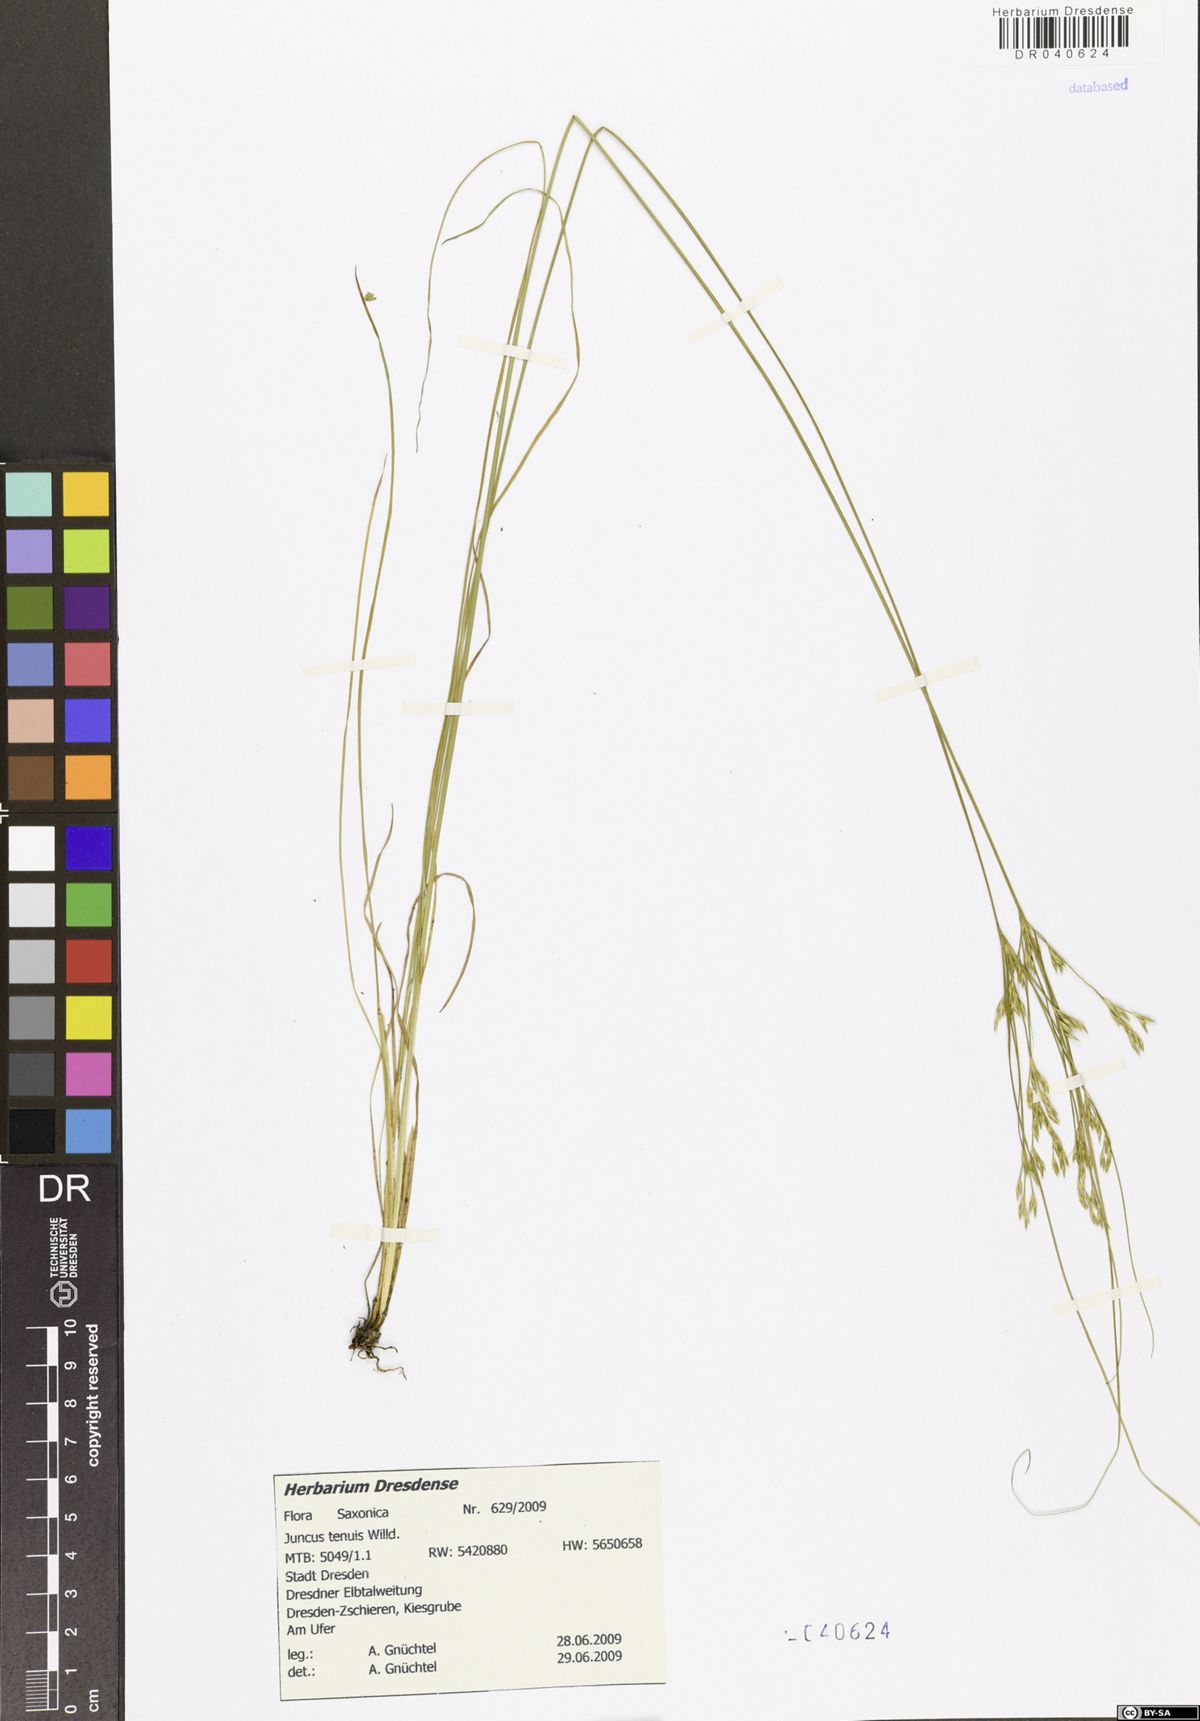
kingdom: Plantae
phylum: Tracheophyta
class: Liliopsida
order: Poales
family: Juncaceae
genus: Juncus
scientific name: Juncus tenuis
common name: Slender rush
